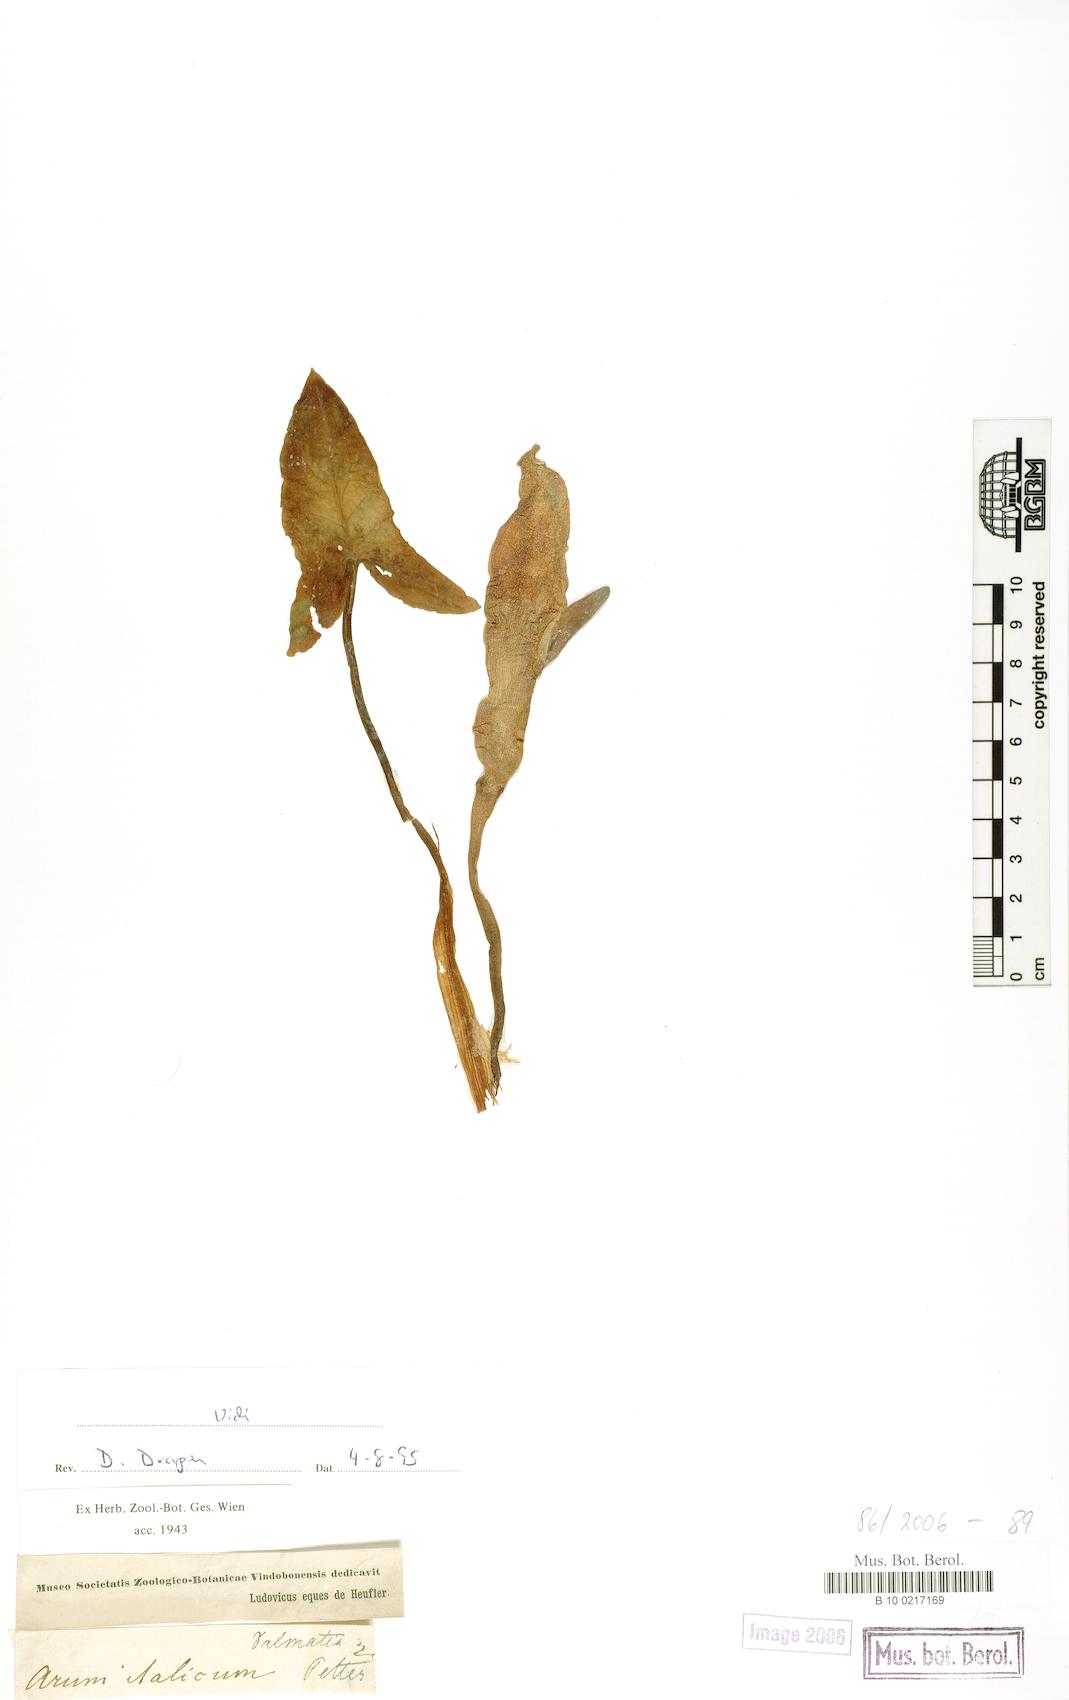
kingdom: Plantae
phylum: Tracheophyta
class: Liliopsida
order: Alismatales
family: Araceae
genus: Arum
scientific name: Arum italicum
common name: Italian lords-and-ladies
